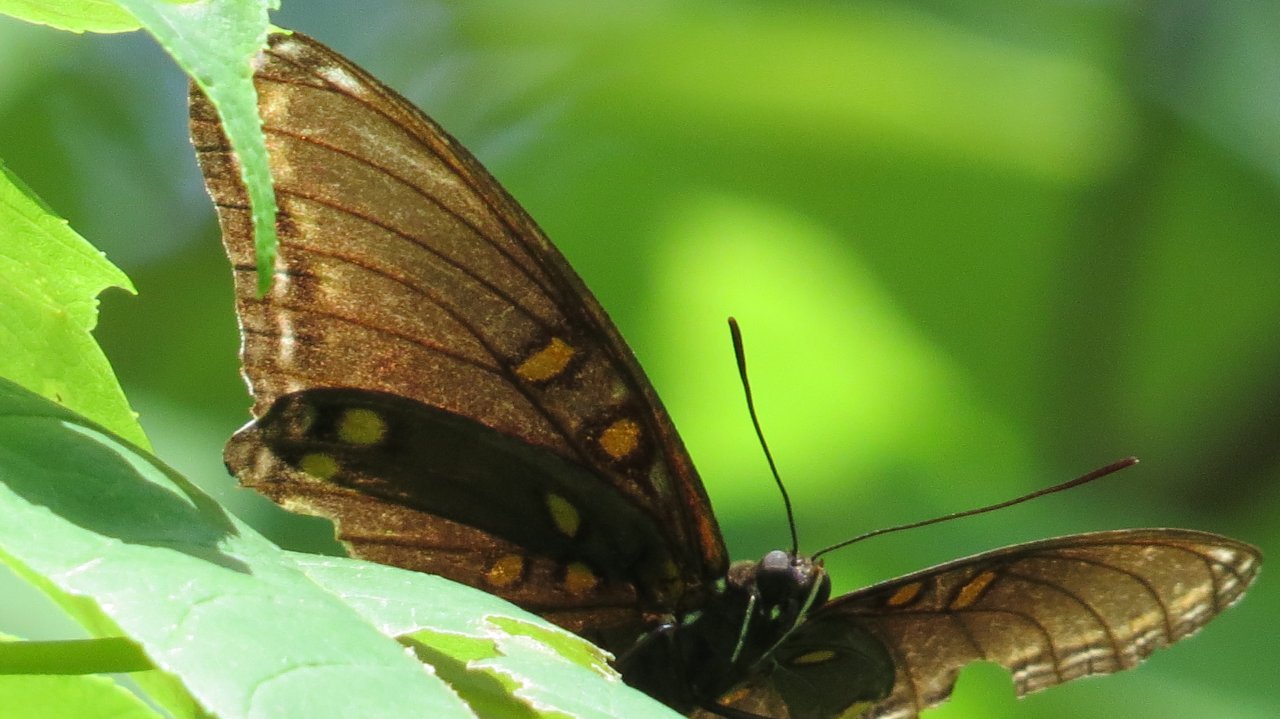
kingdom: Animalia
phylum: Arthropoda
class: Insecta
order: Lepidoptera
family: Nymphalidae
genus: Limenitis
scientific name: Limenitis astyanax
